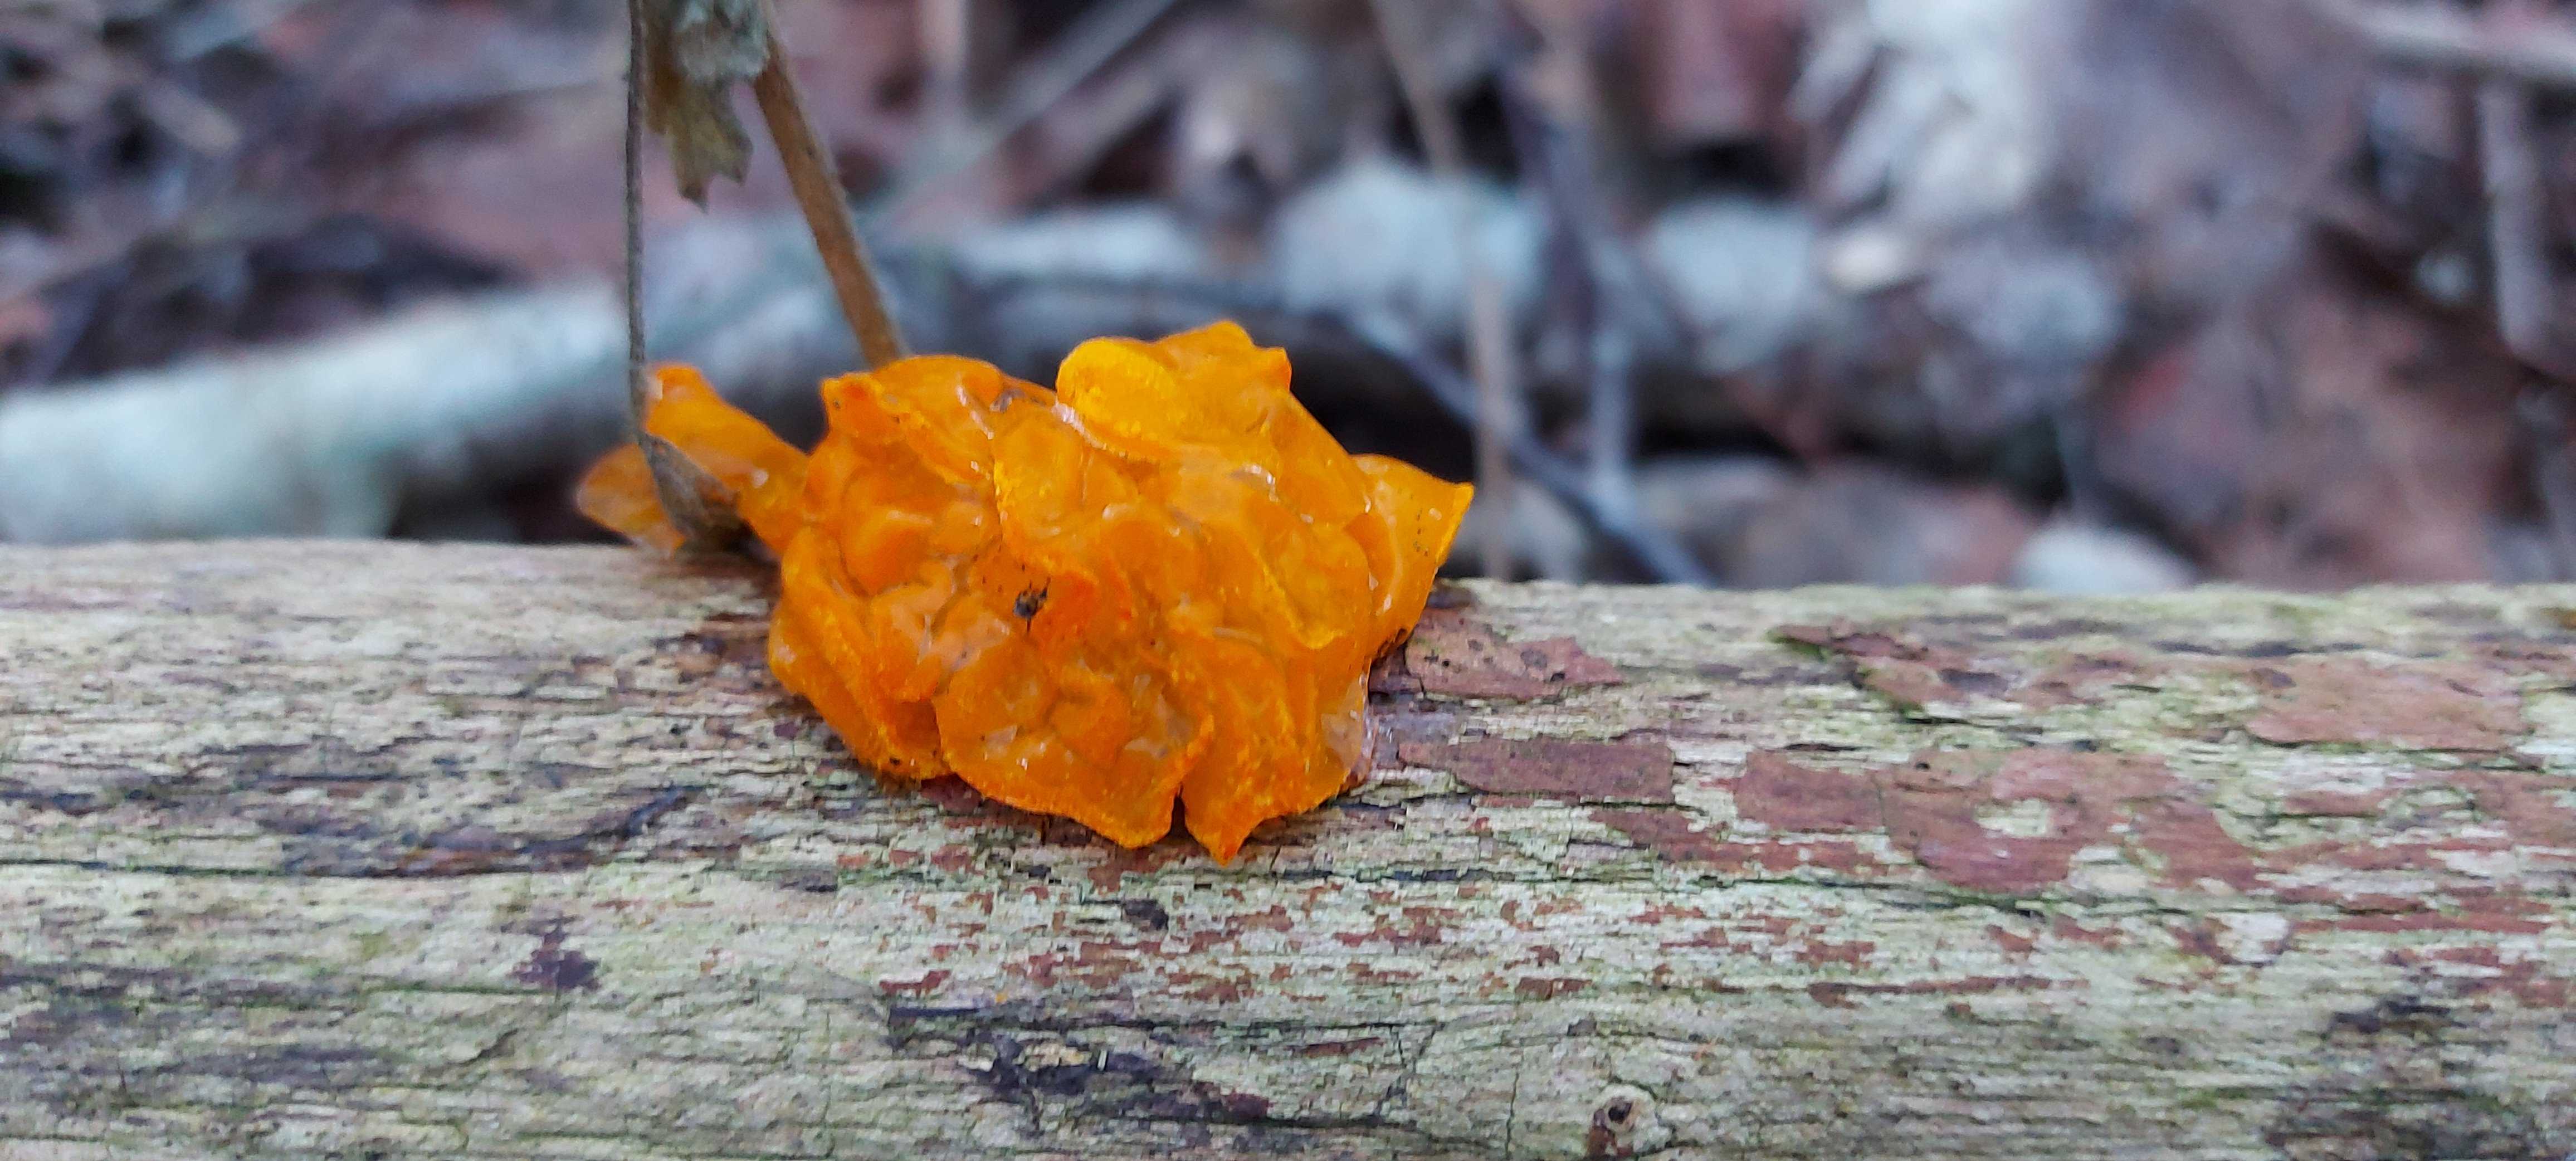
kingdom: Fungi
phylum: Basidiomycota
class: Tremellomycetes
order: Tremellales
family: Tremellaceae
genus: Tremella
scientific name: Tremella mesenterica
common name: gul bævresvamp
